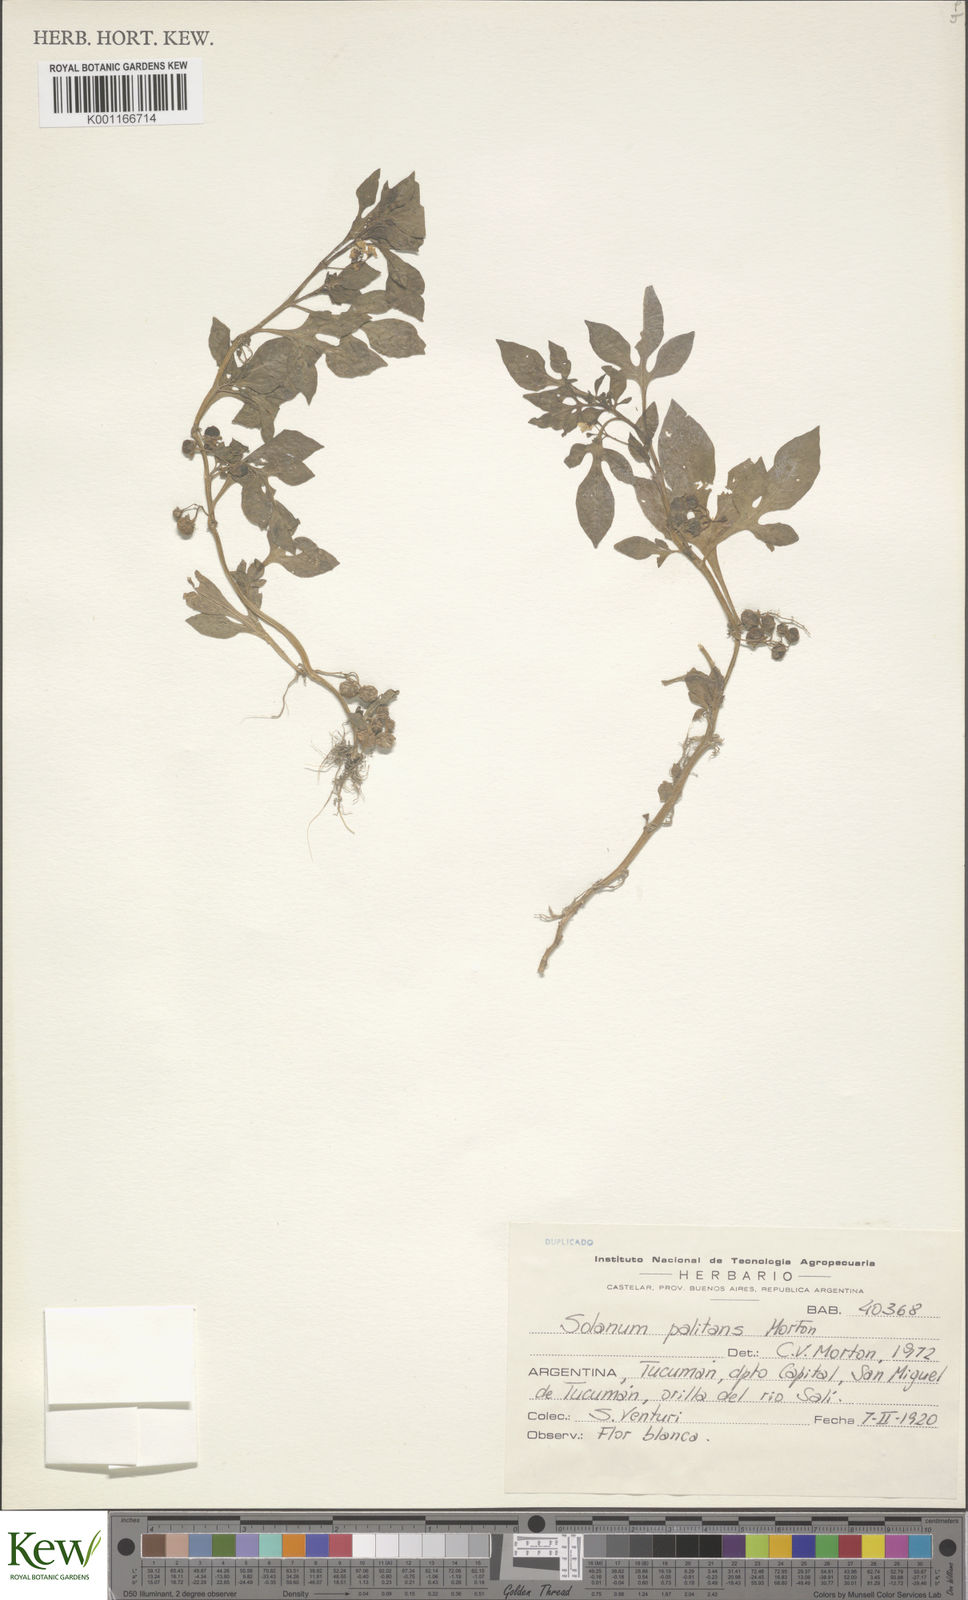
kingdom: Plantae
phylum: Tracheophyta
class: Magnoliopsida
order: Solanales
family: Solanaceae
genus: Solanum
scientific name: Solanum palitans
